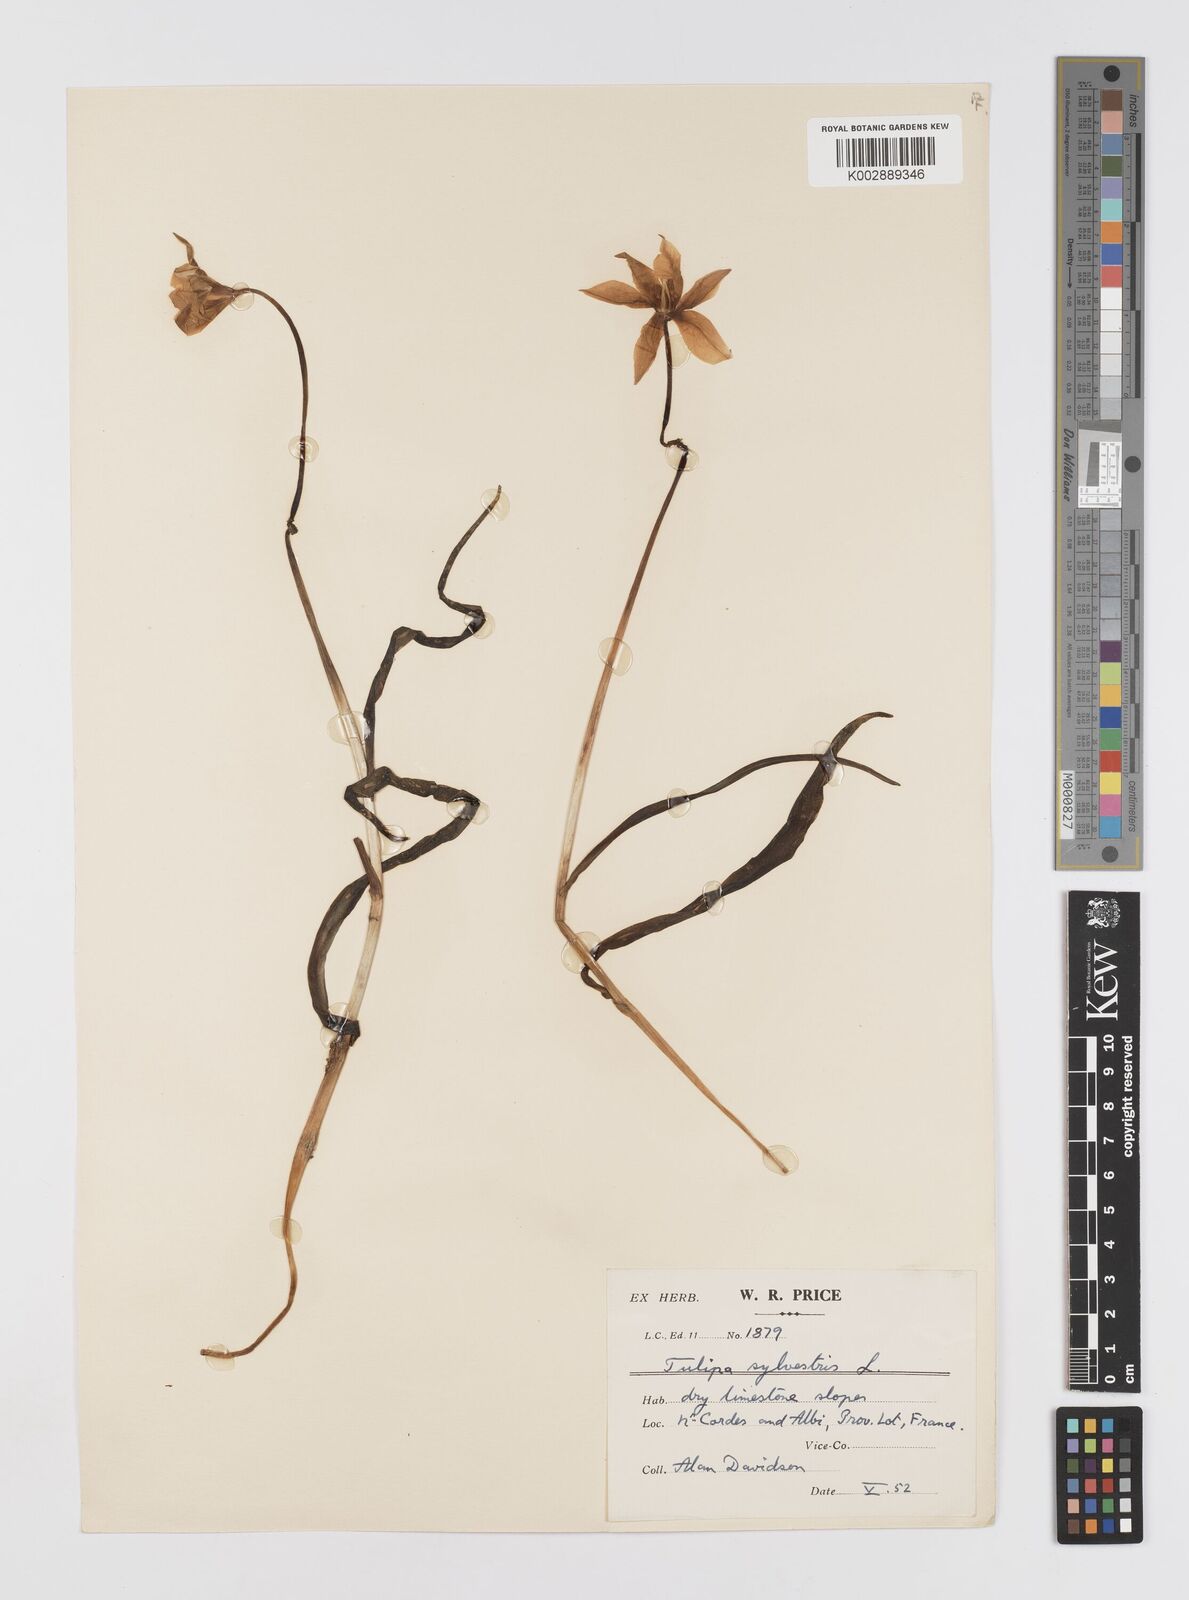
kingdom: Plantae
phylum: Tracheophyta
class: Liliopsida
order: Liliales
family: Liliaceae
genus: Tulipa
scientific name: Tulipa sylvestris
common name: Wild tulip
